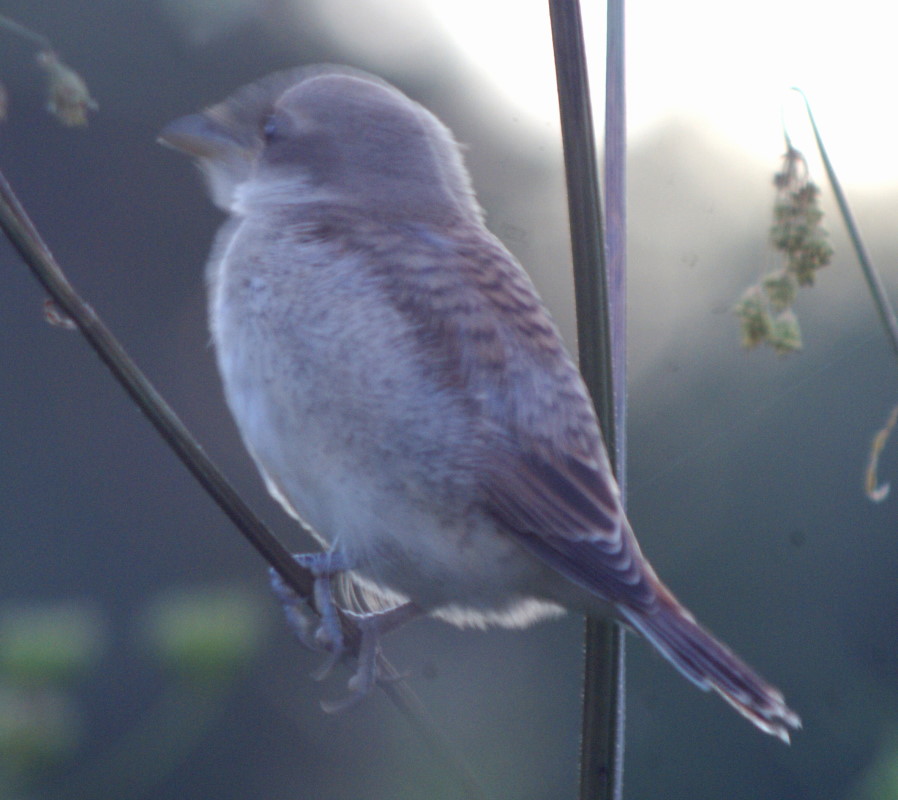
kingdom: Animalia
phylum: Chordata
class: Aves
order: Passeriformes
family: Laniidae
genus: Lanius
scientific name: Lanius collurio
